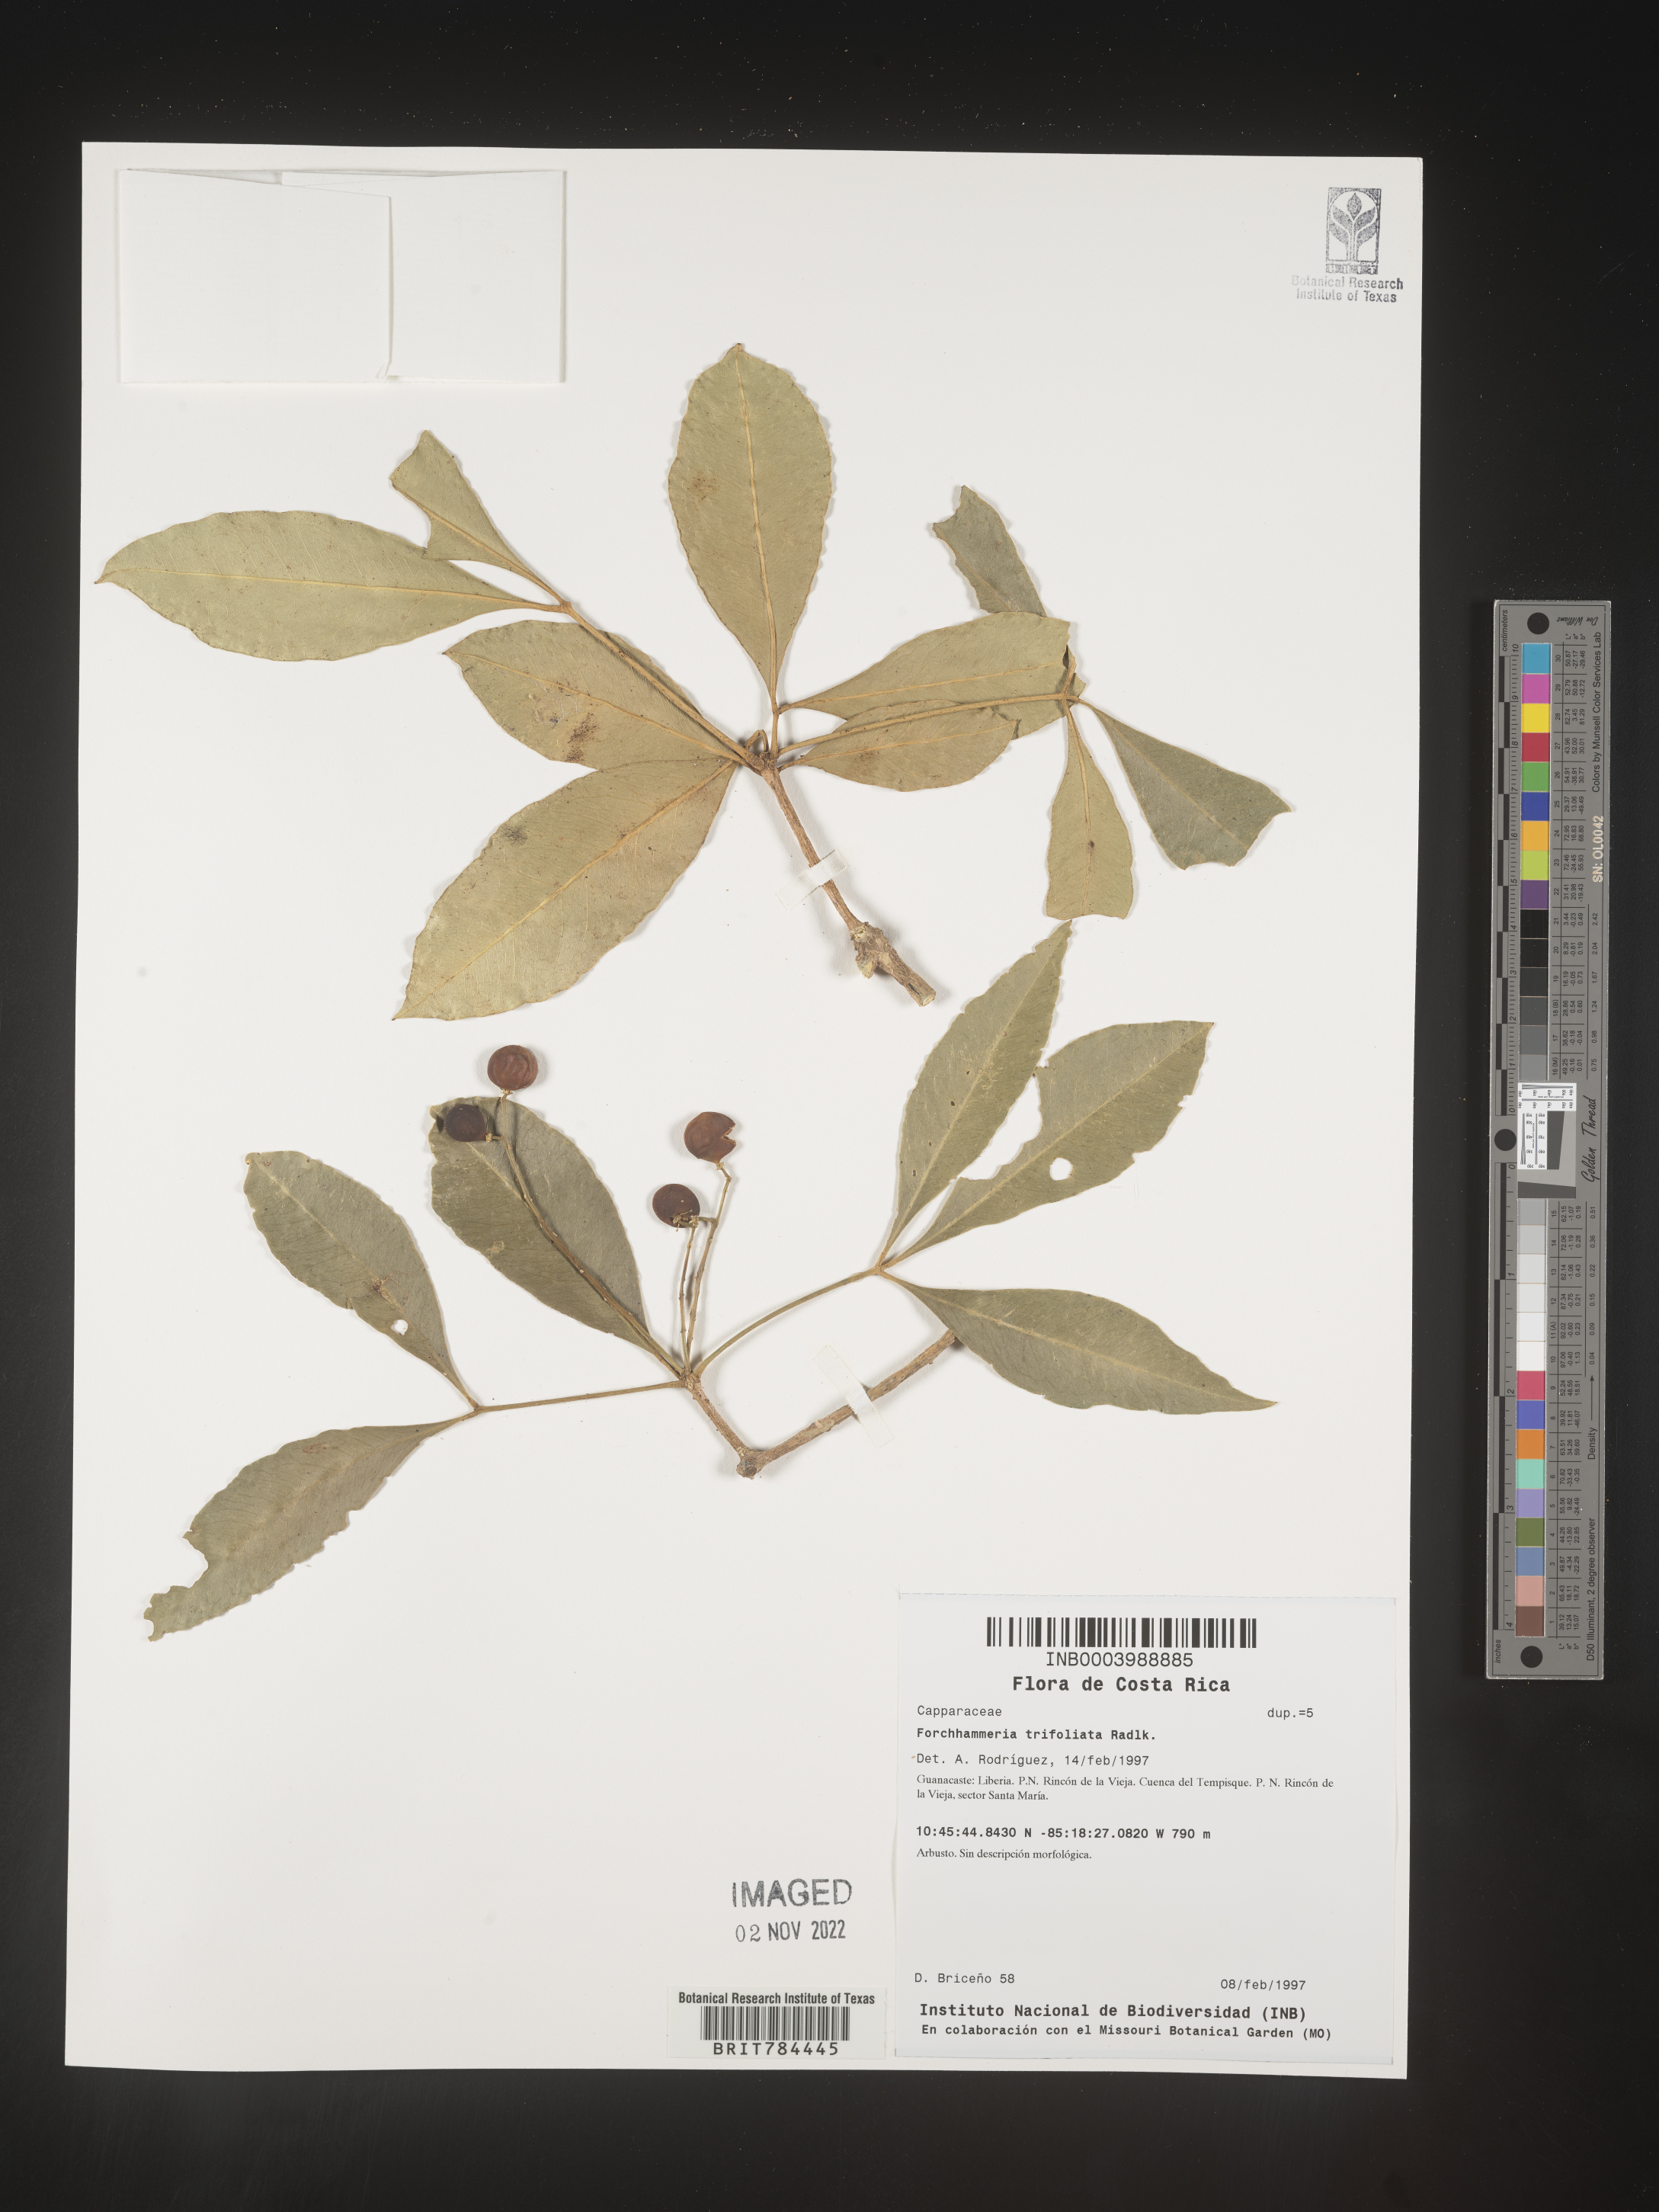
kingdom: Plantae
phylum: Tracheophyta
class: Magnoliopsida
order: Brassicales
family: Stixaceae
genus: Forchhammeria
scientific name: Forchhammeria
